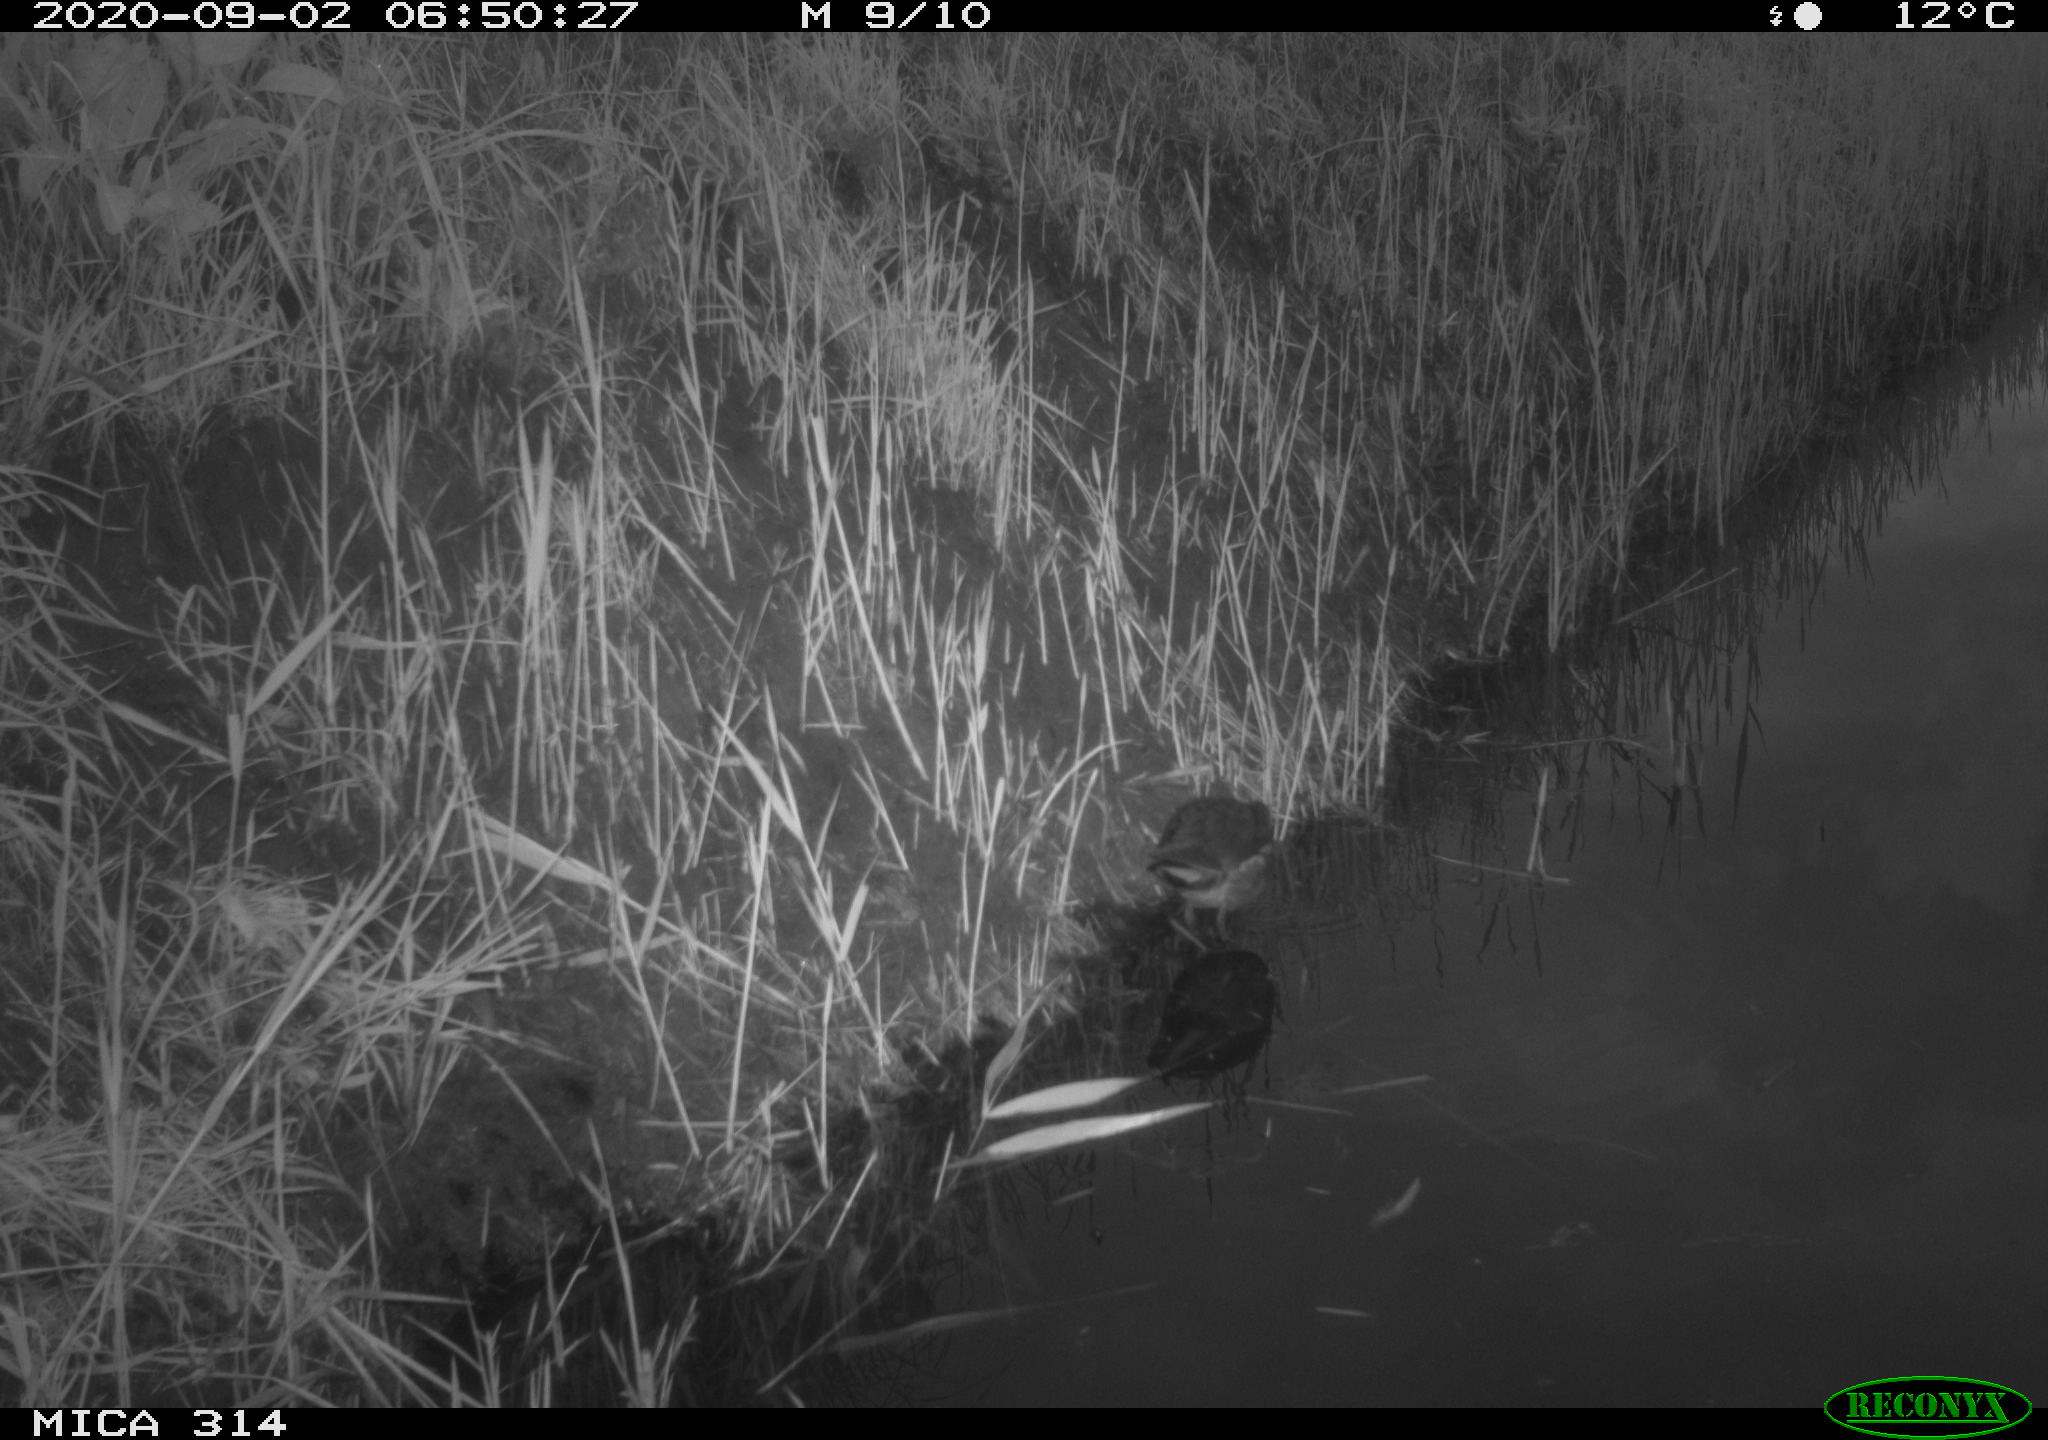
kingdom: Animalia
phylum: Chordata
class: Aves
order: Gruiformes
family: Rallidae
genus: Gallinula
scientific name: Gallinula chloropus
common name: Common moorhen
